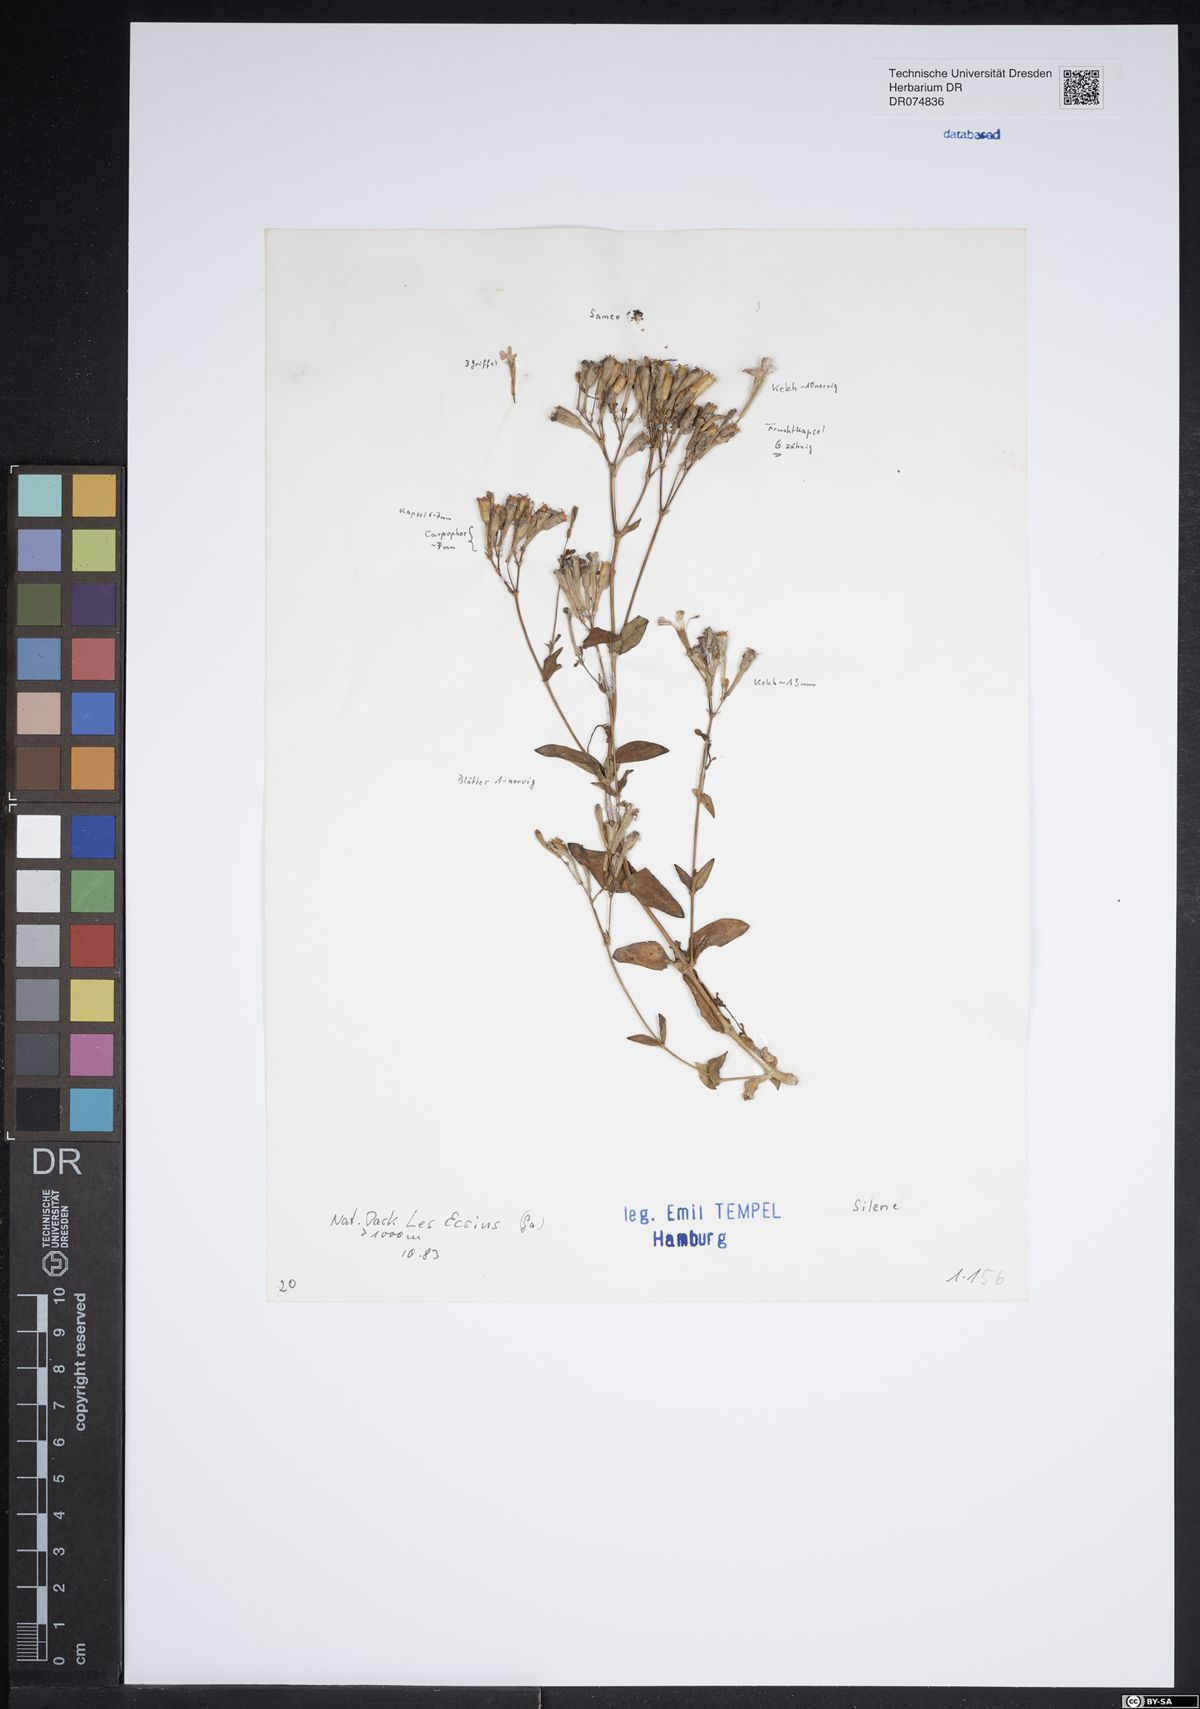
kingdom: Plantae
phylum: Tracheophyta
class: Magnoliopsida
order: Caryophyllales
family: Caryophyllaceae
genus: Silene
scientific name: Silene
